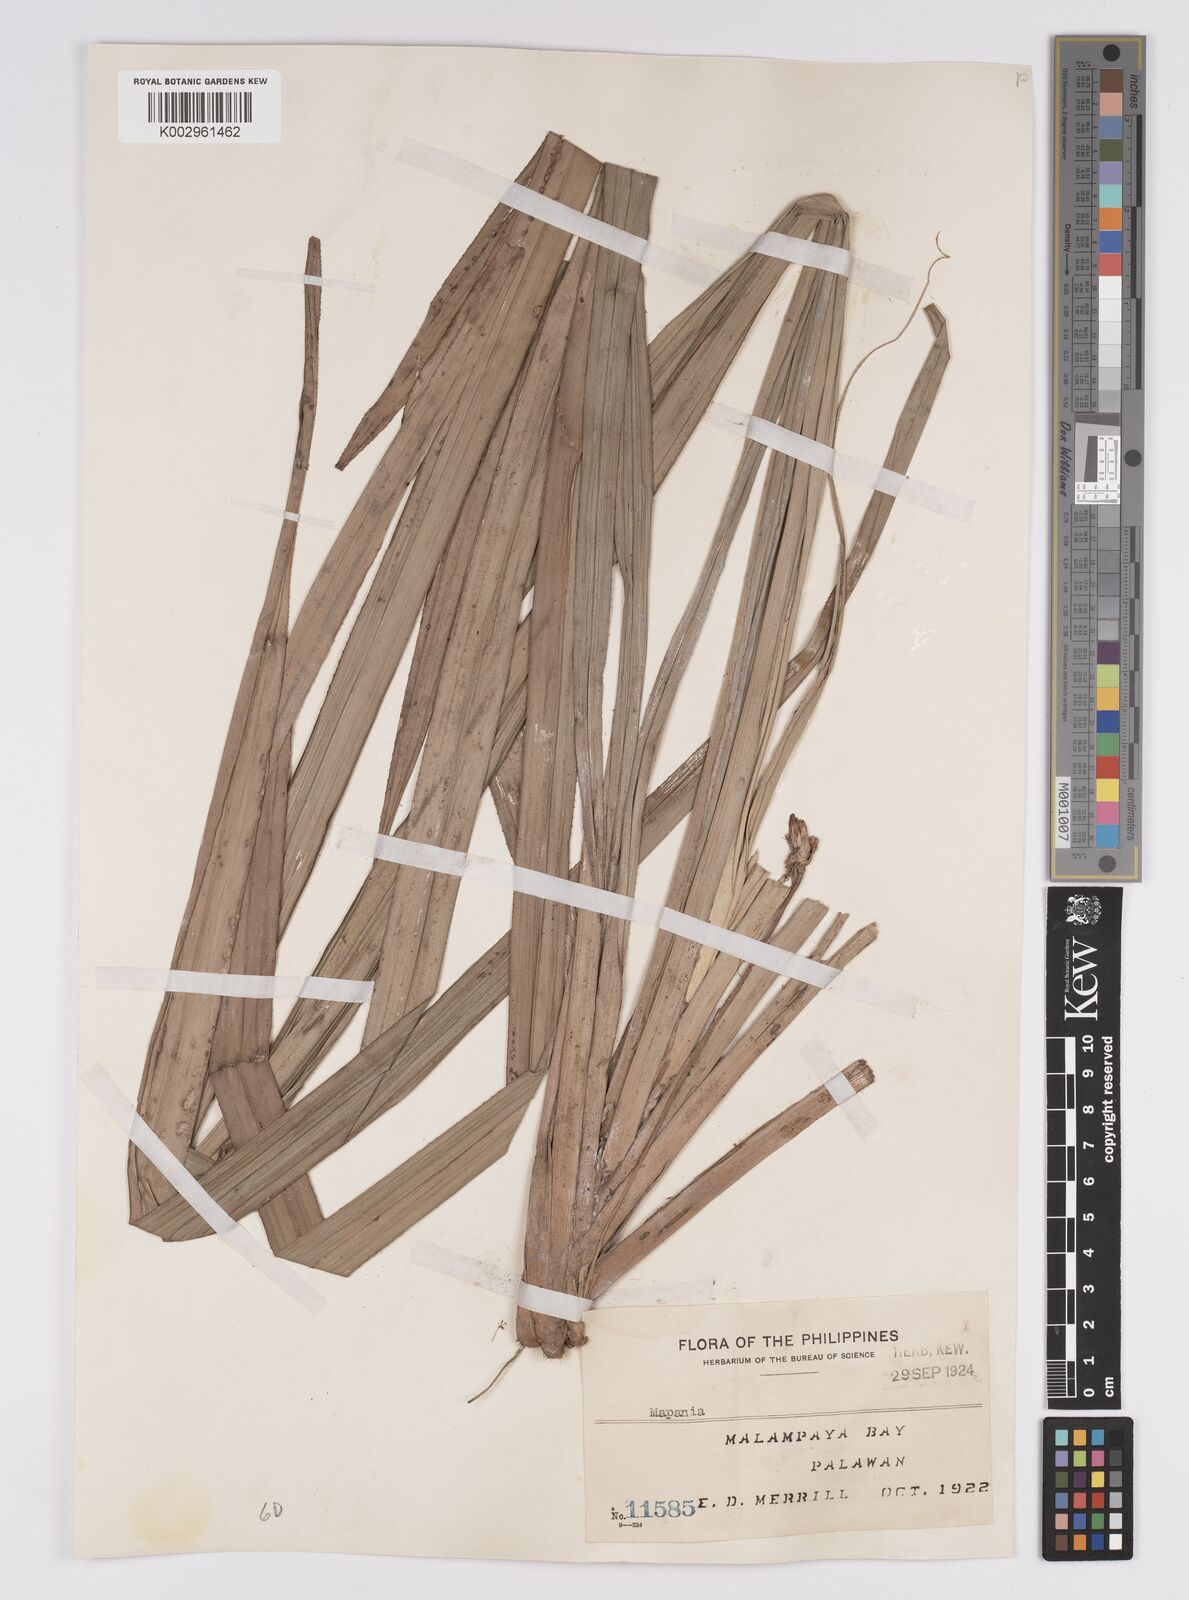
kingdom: Plantae
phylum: Tracheophyta
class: Liliopsida
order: Poales
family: Cyperaceae
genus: Mapania
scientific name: Mapania
